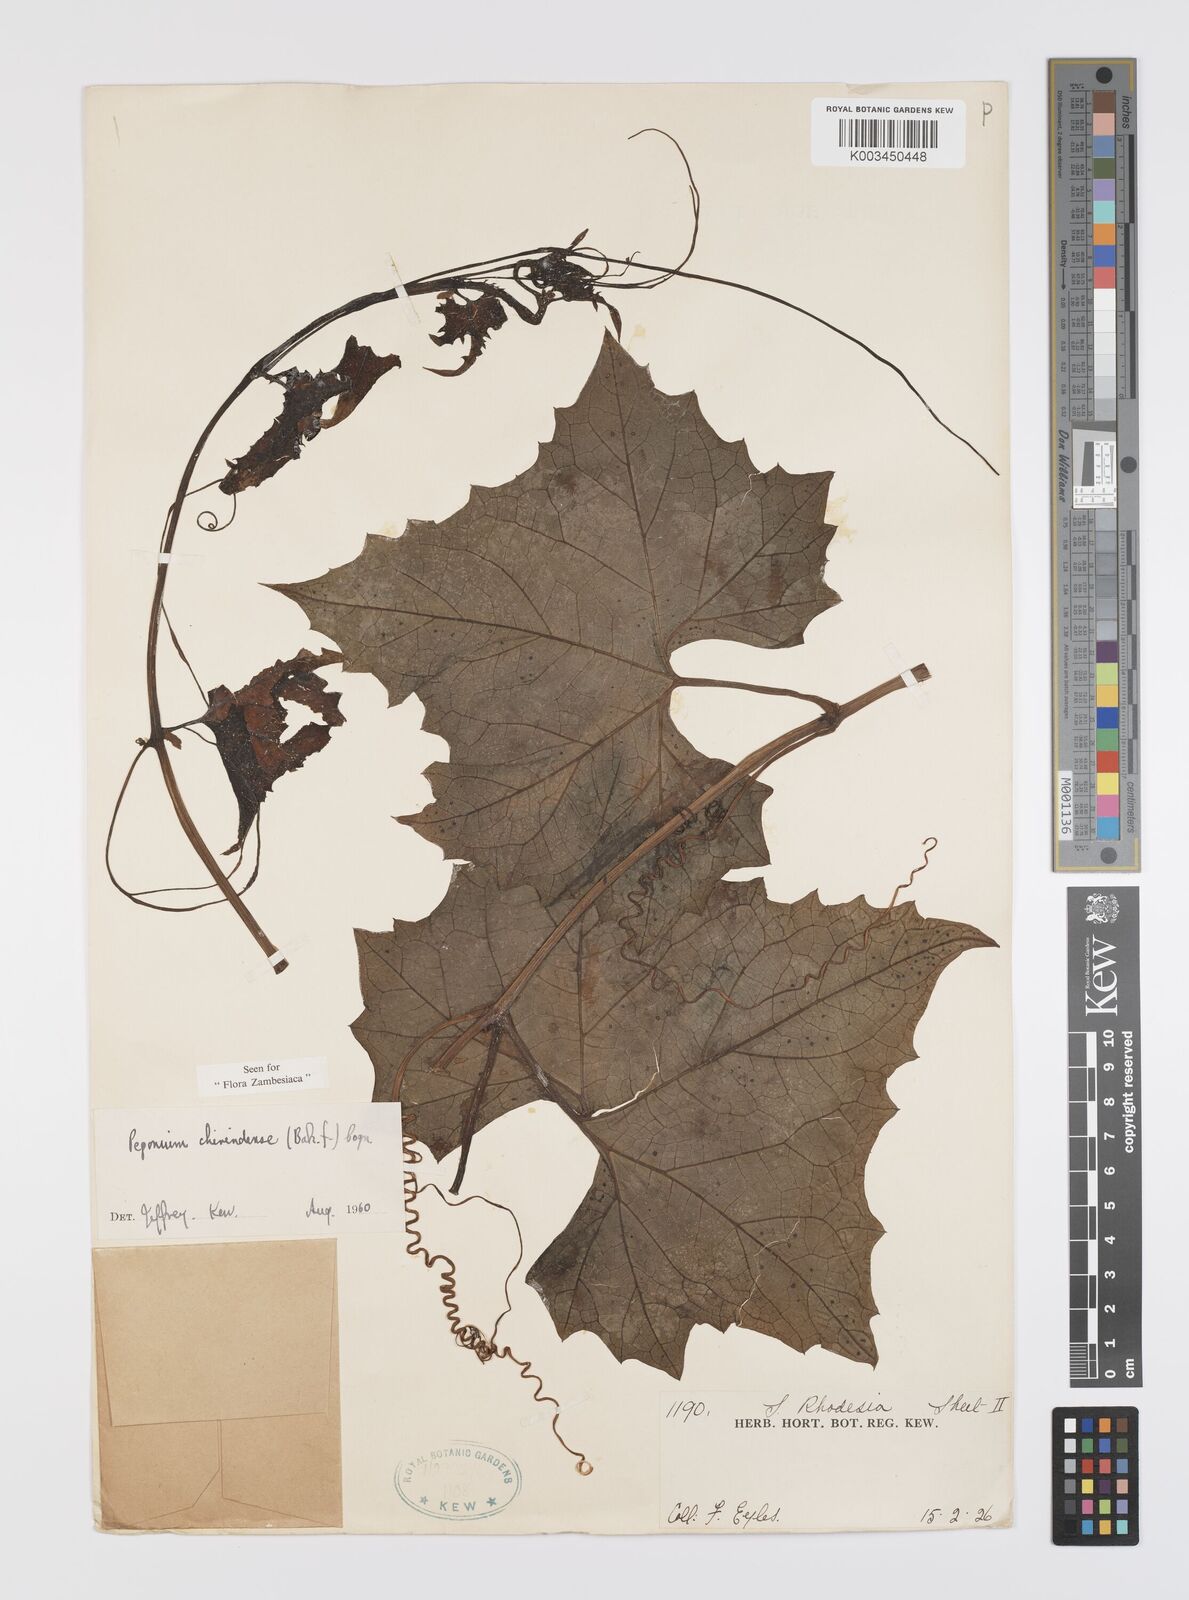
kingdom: Plantae
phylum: Tracheophyta
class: Magnoliopsida
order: Cucurbitales
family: Cucurbitaceae
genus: Peponium
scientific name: Peponium chirindense
